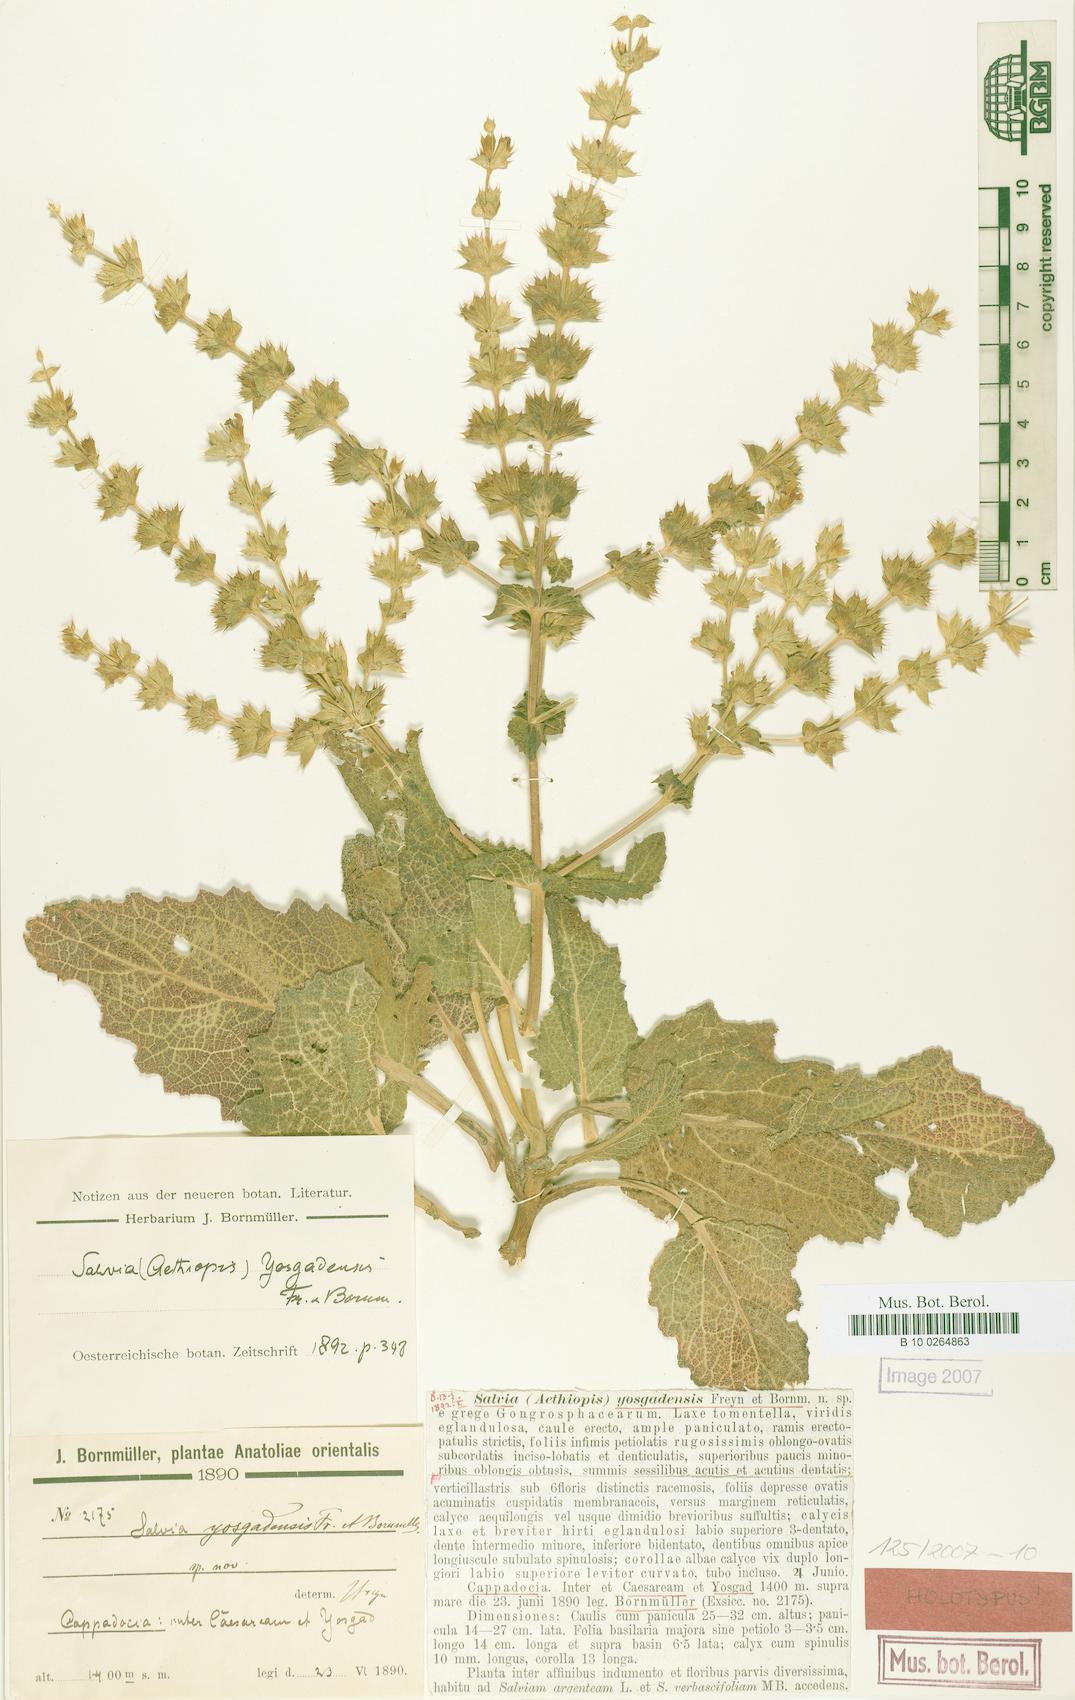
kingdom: Plantae
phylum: Tracheophyta
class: Magnoliopsida
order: Lamiales
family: Lamiaceae
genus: Salvia
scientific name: Salvia yosgadensis
